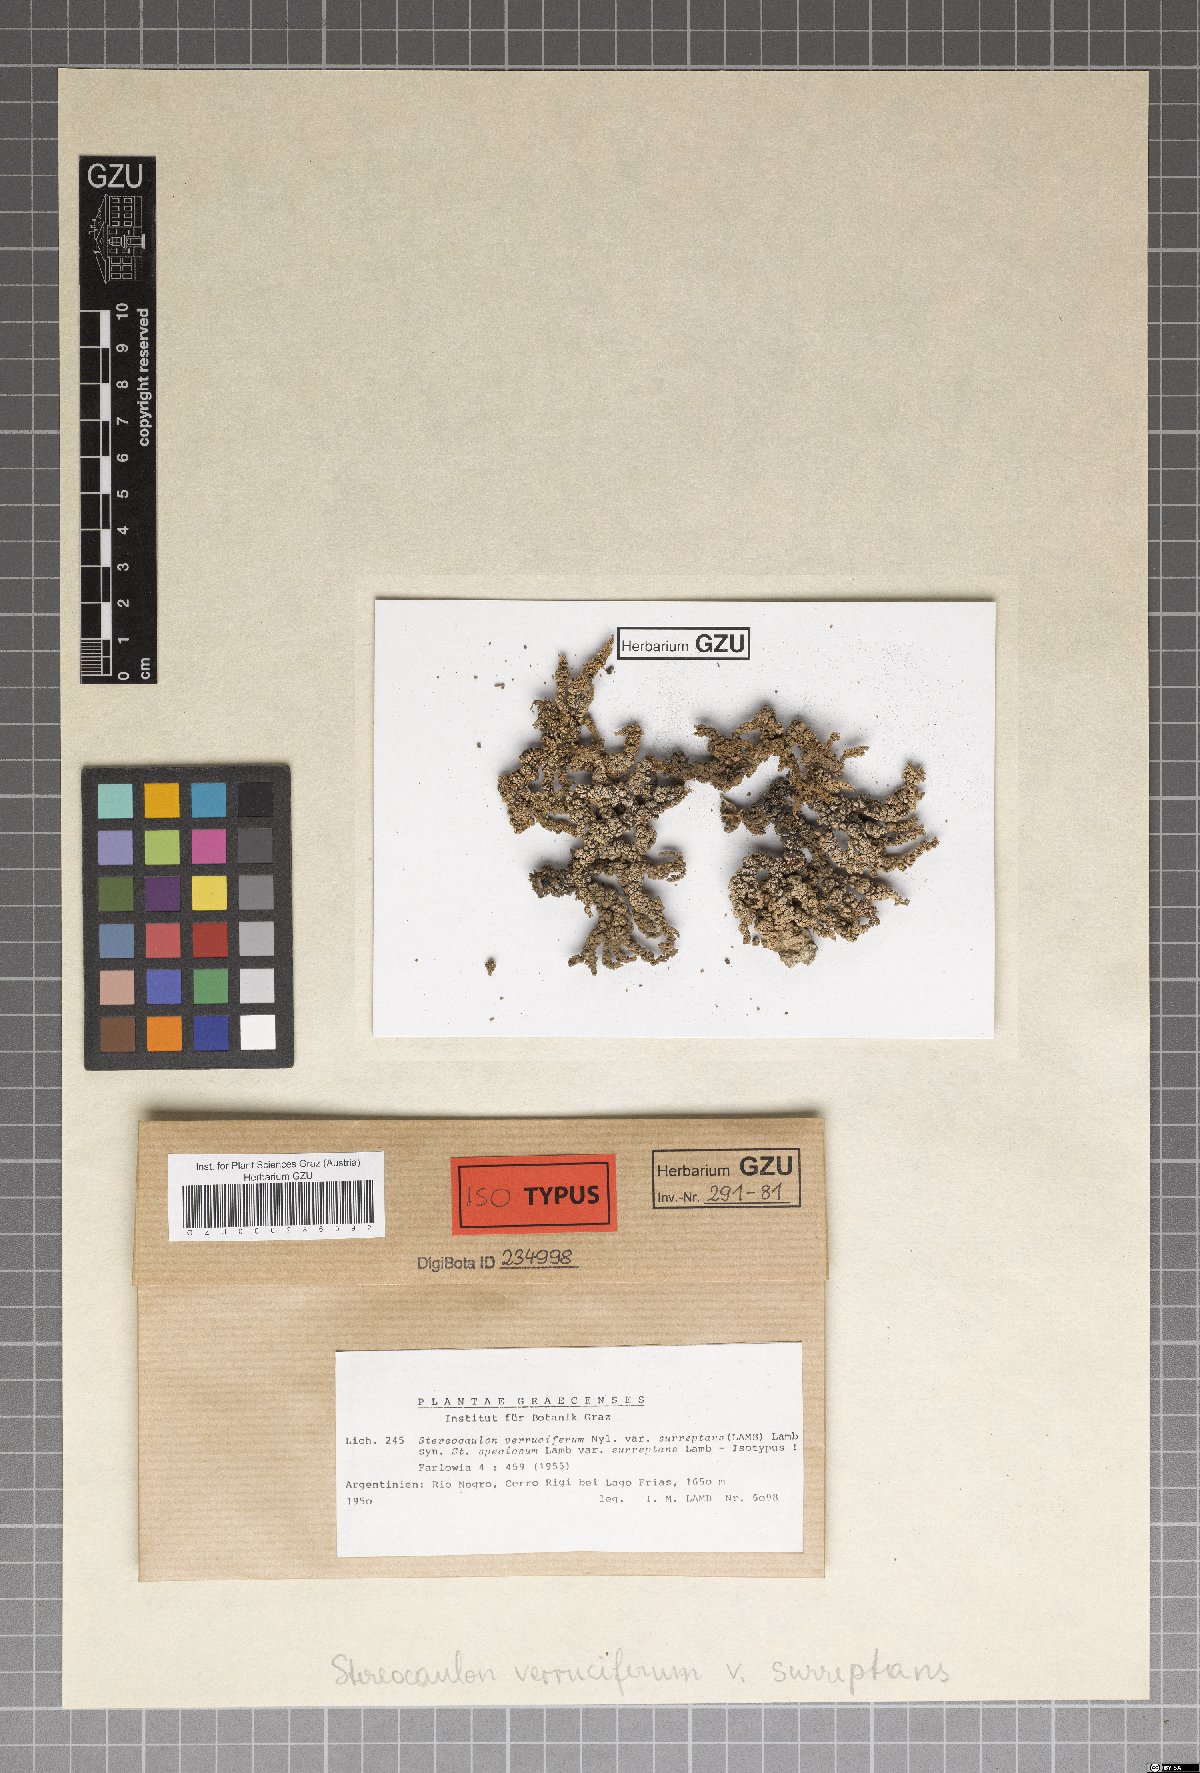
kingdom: Fungi
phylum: Ascomycota
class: Lecanoromycetes
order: Lecanorales
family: Stereocaulaceae
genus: Stereocaulon
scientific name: Stereocaulon
